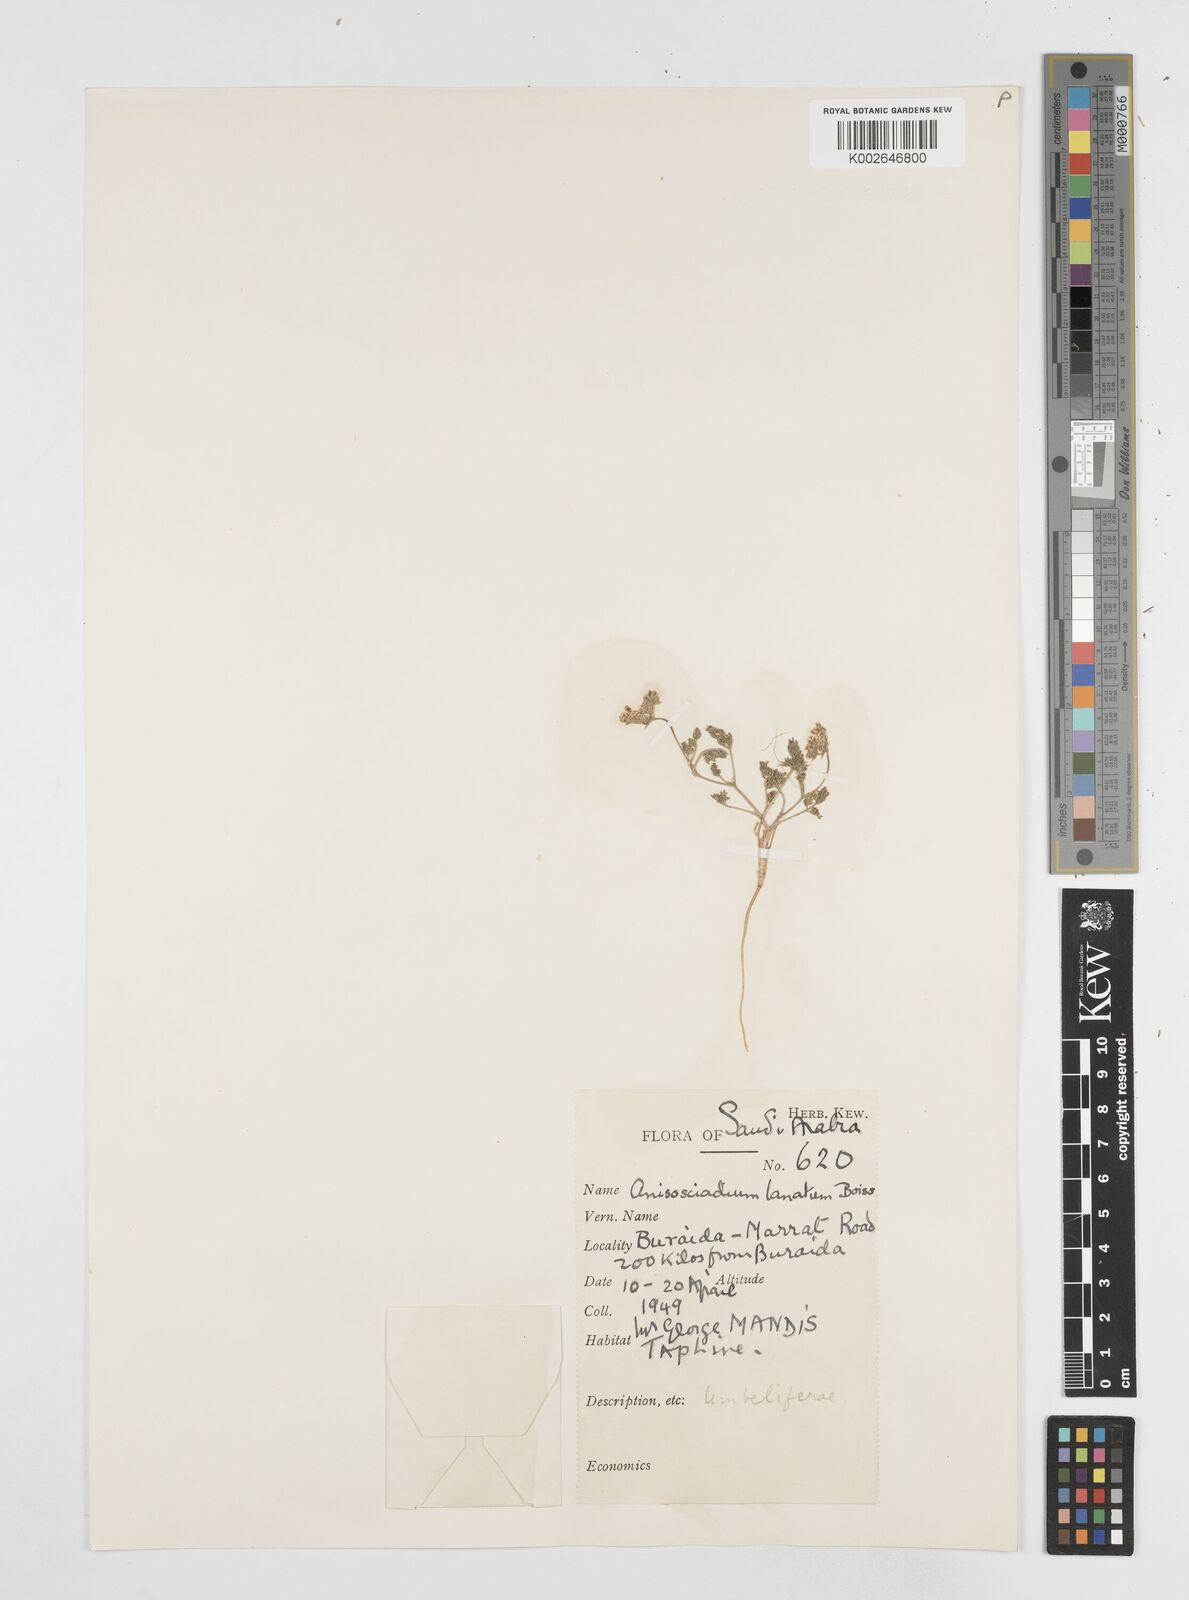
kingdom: Plantae
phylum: Tracheophyta
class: Magnoliopsida
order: Apiales
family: Apiaceae
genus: Anisosciadium
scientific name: Anisosciadium lanatum
